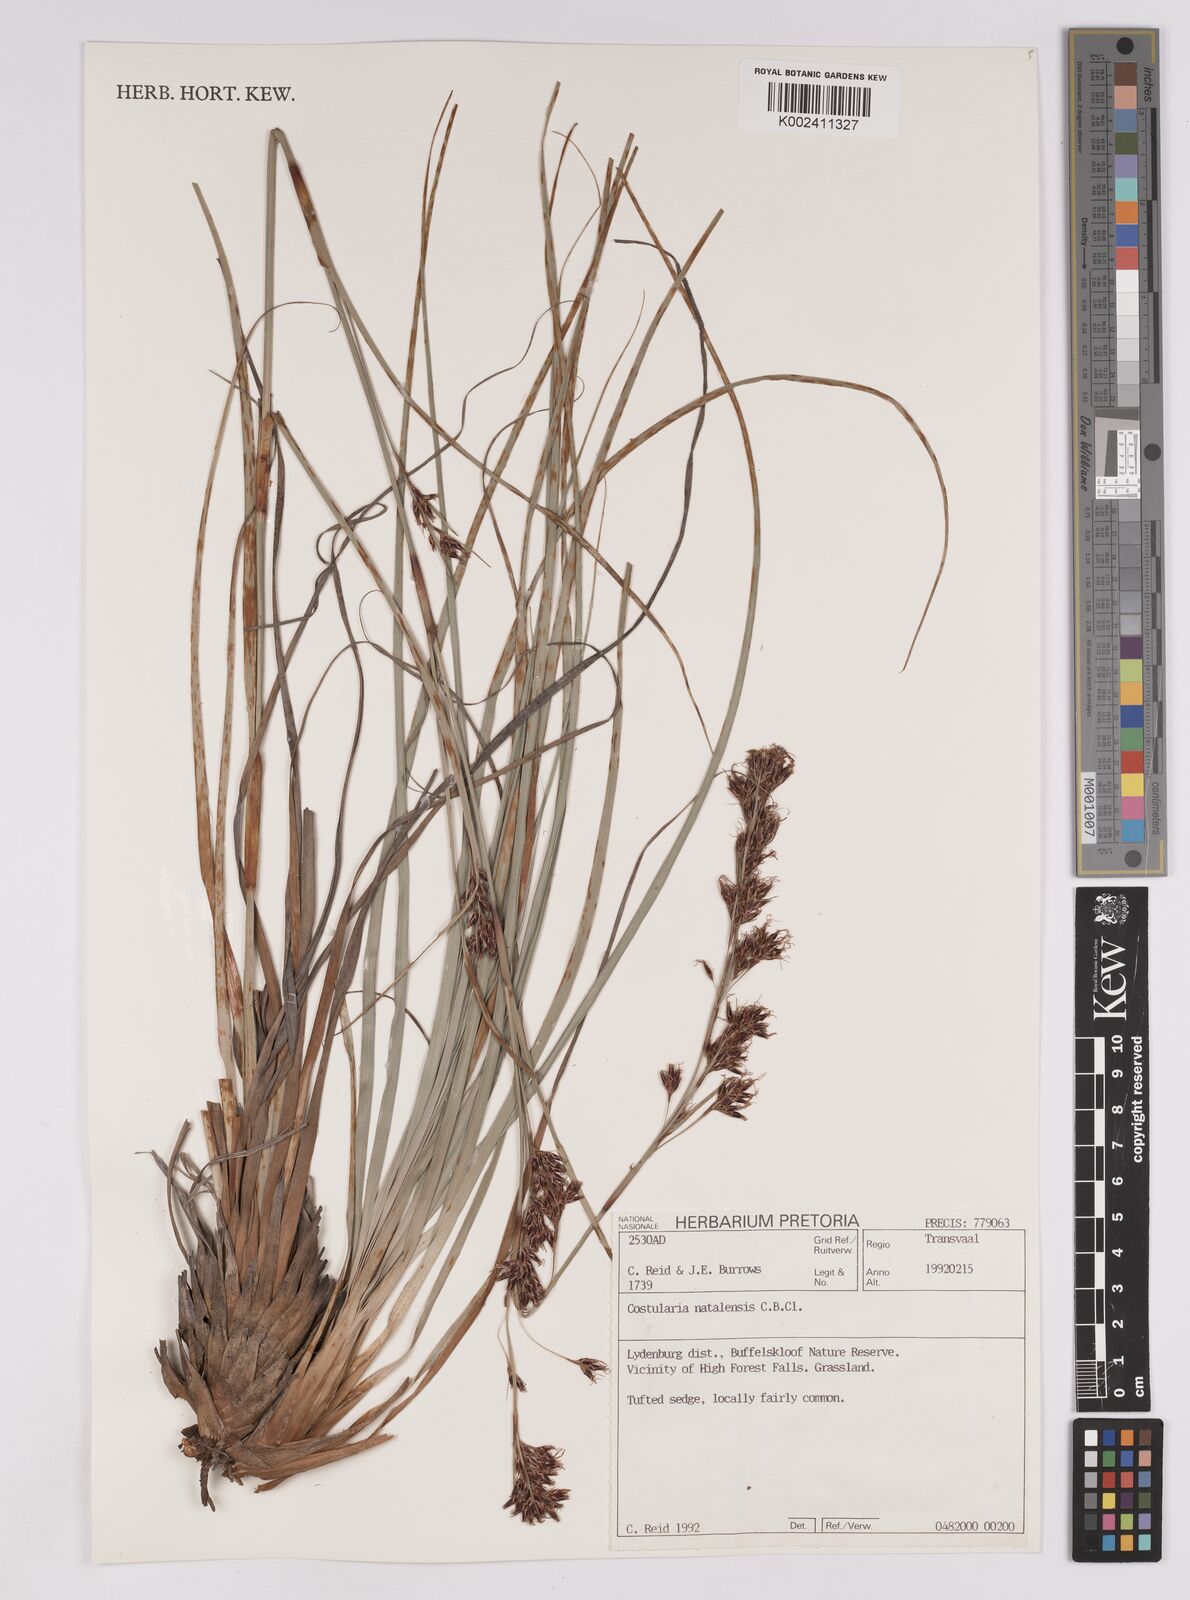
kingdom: Plantae
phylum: Tracheophyta
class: Liliopsida
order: Poales
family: Cyperaceae
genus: Costularia
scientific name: Costularia natalensis
